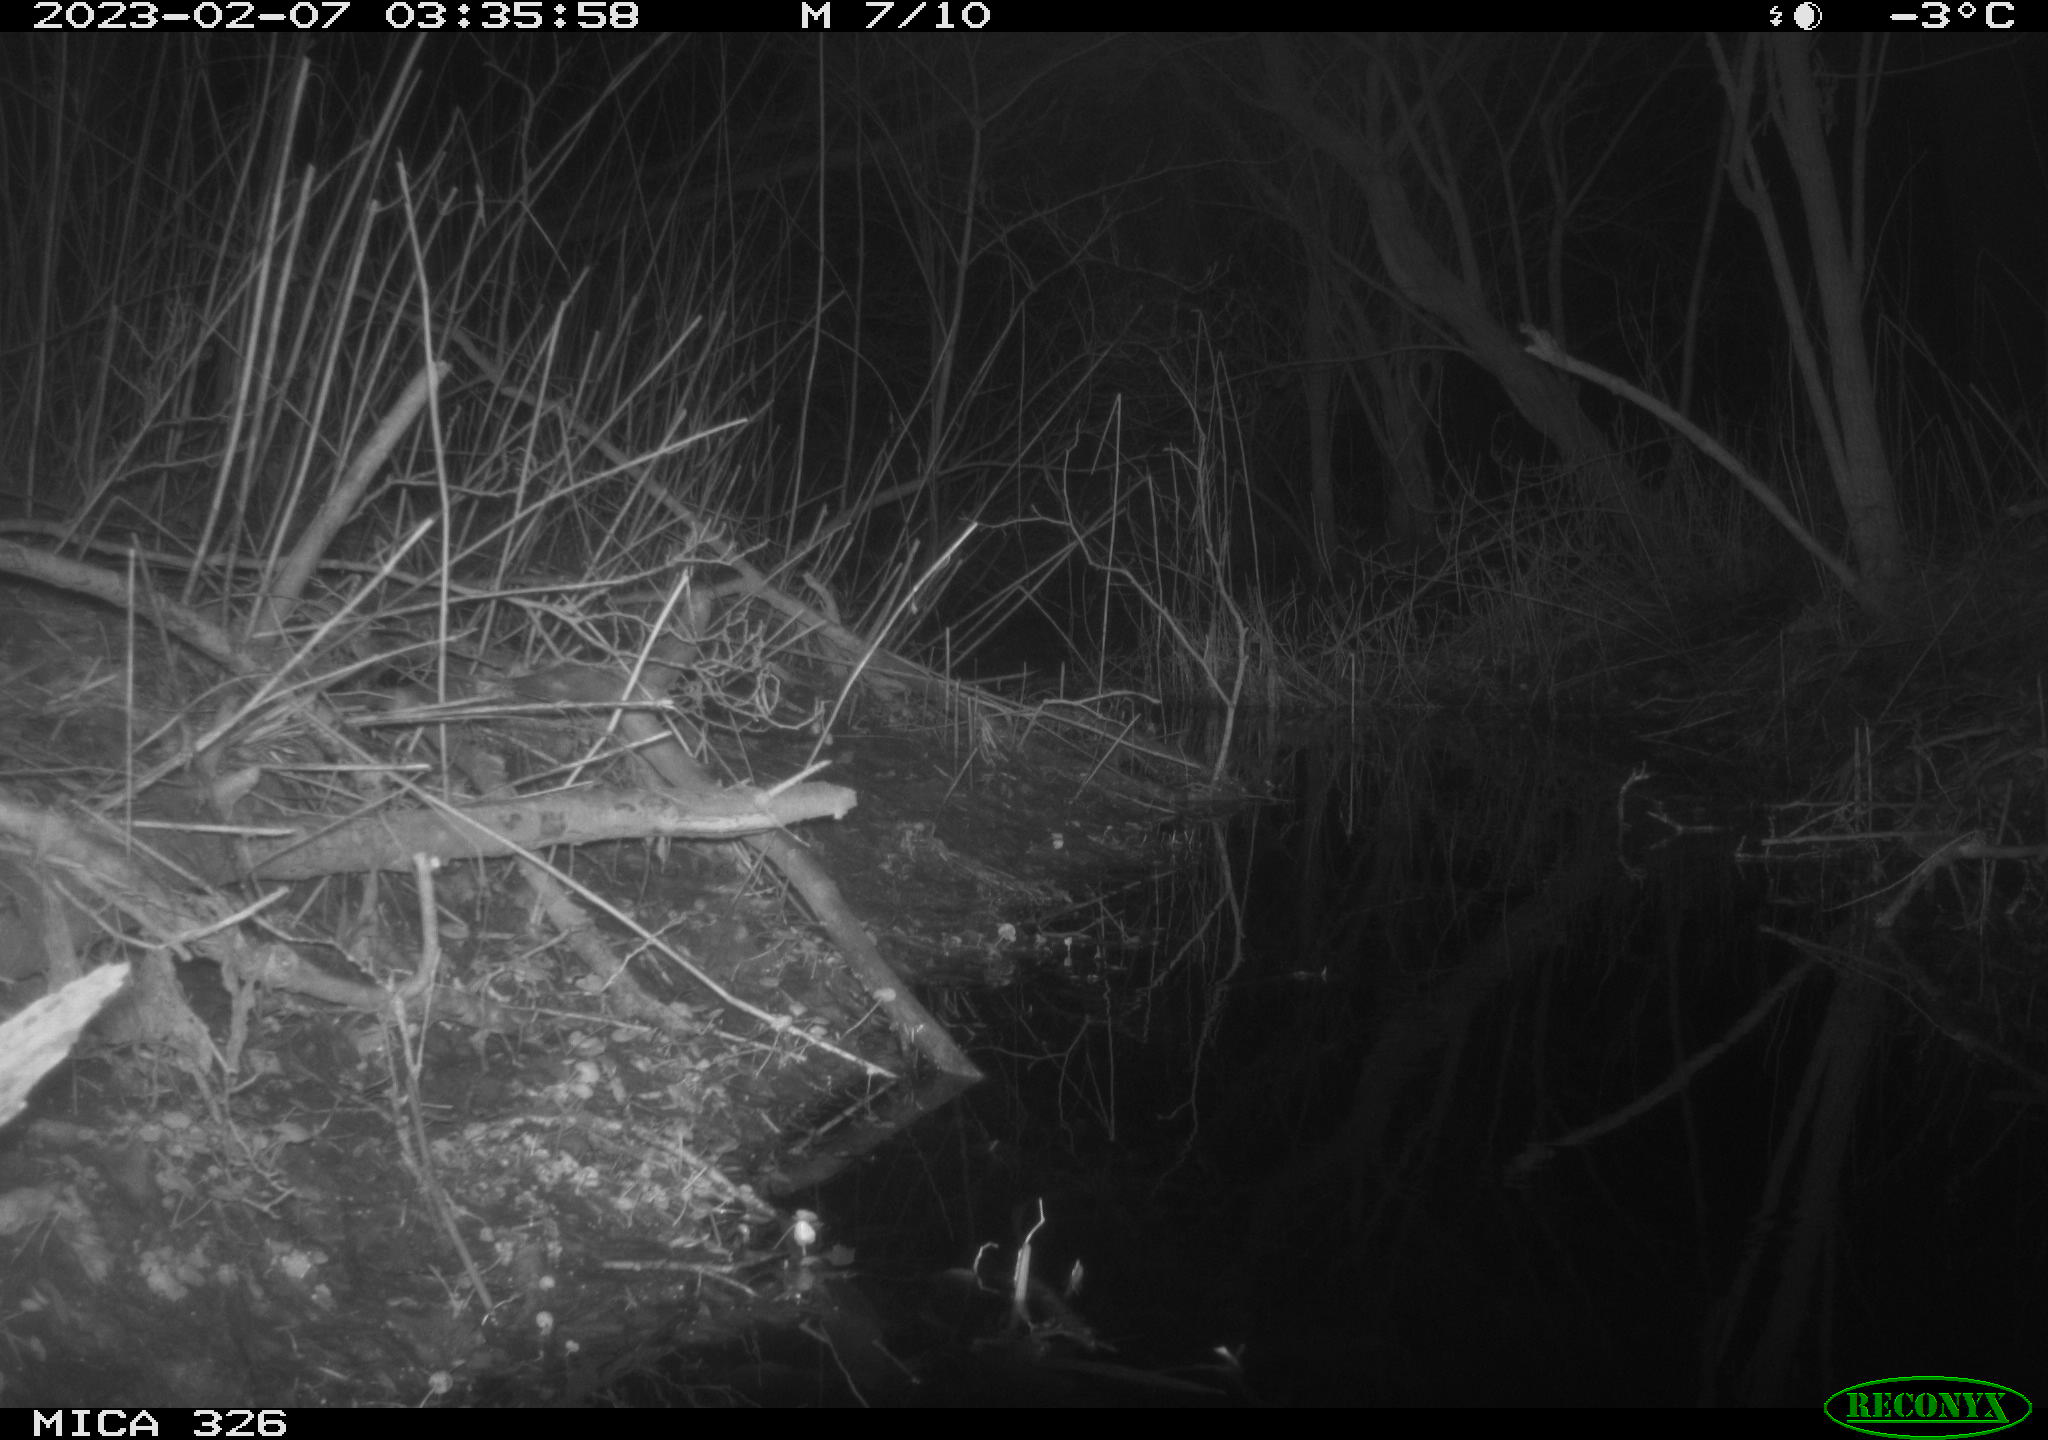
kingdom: Animalia
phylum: Chordata
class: Mammalia
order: Rodentia
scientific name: Rodentia
